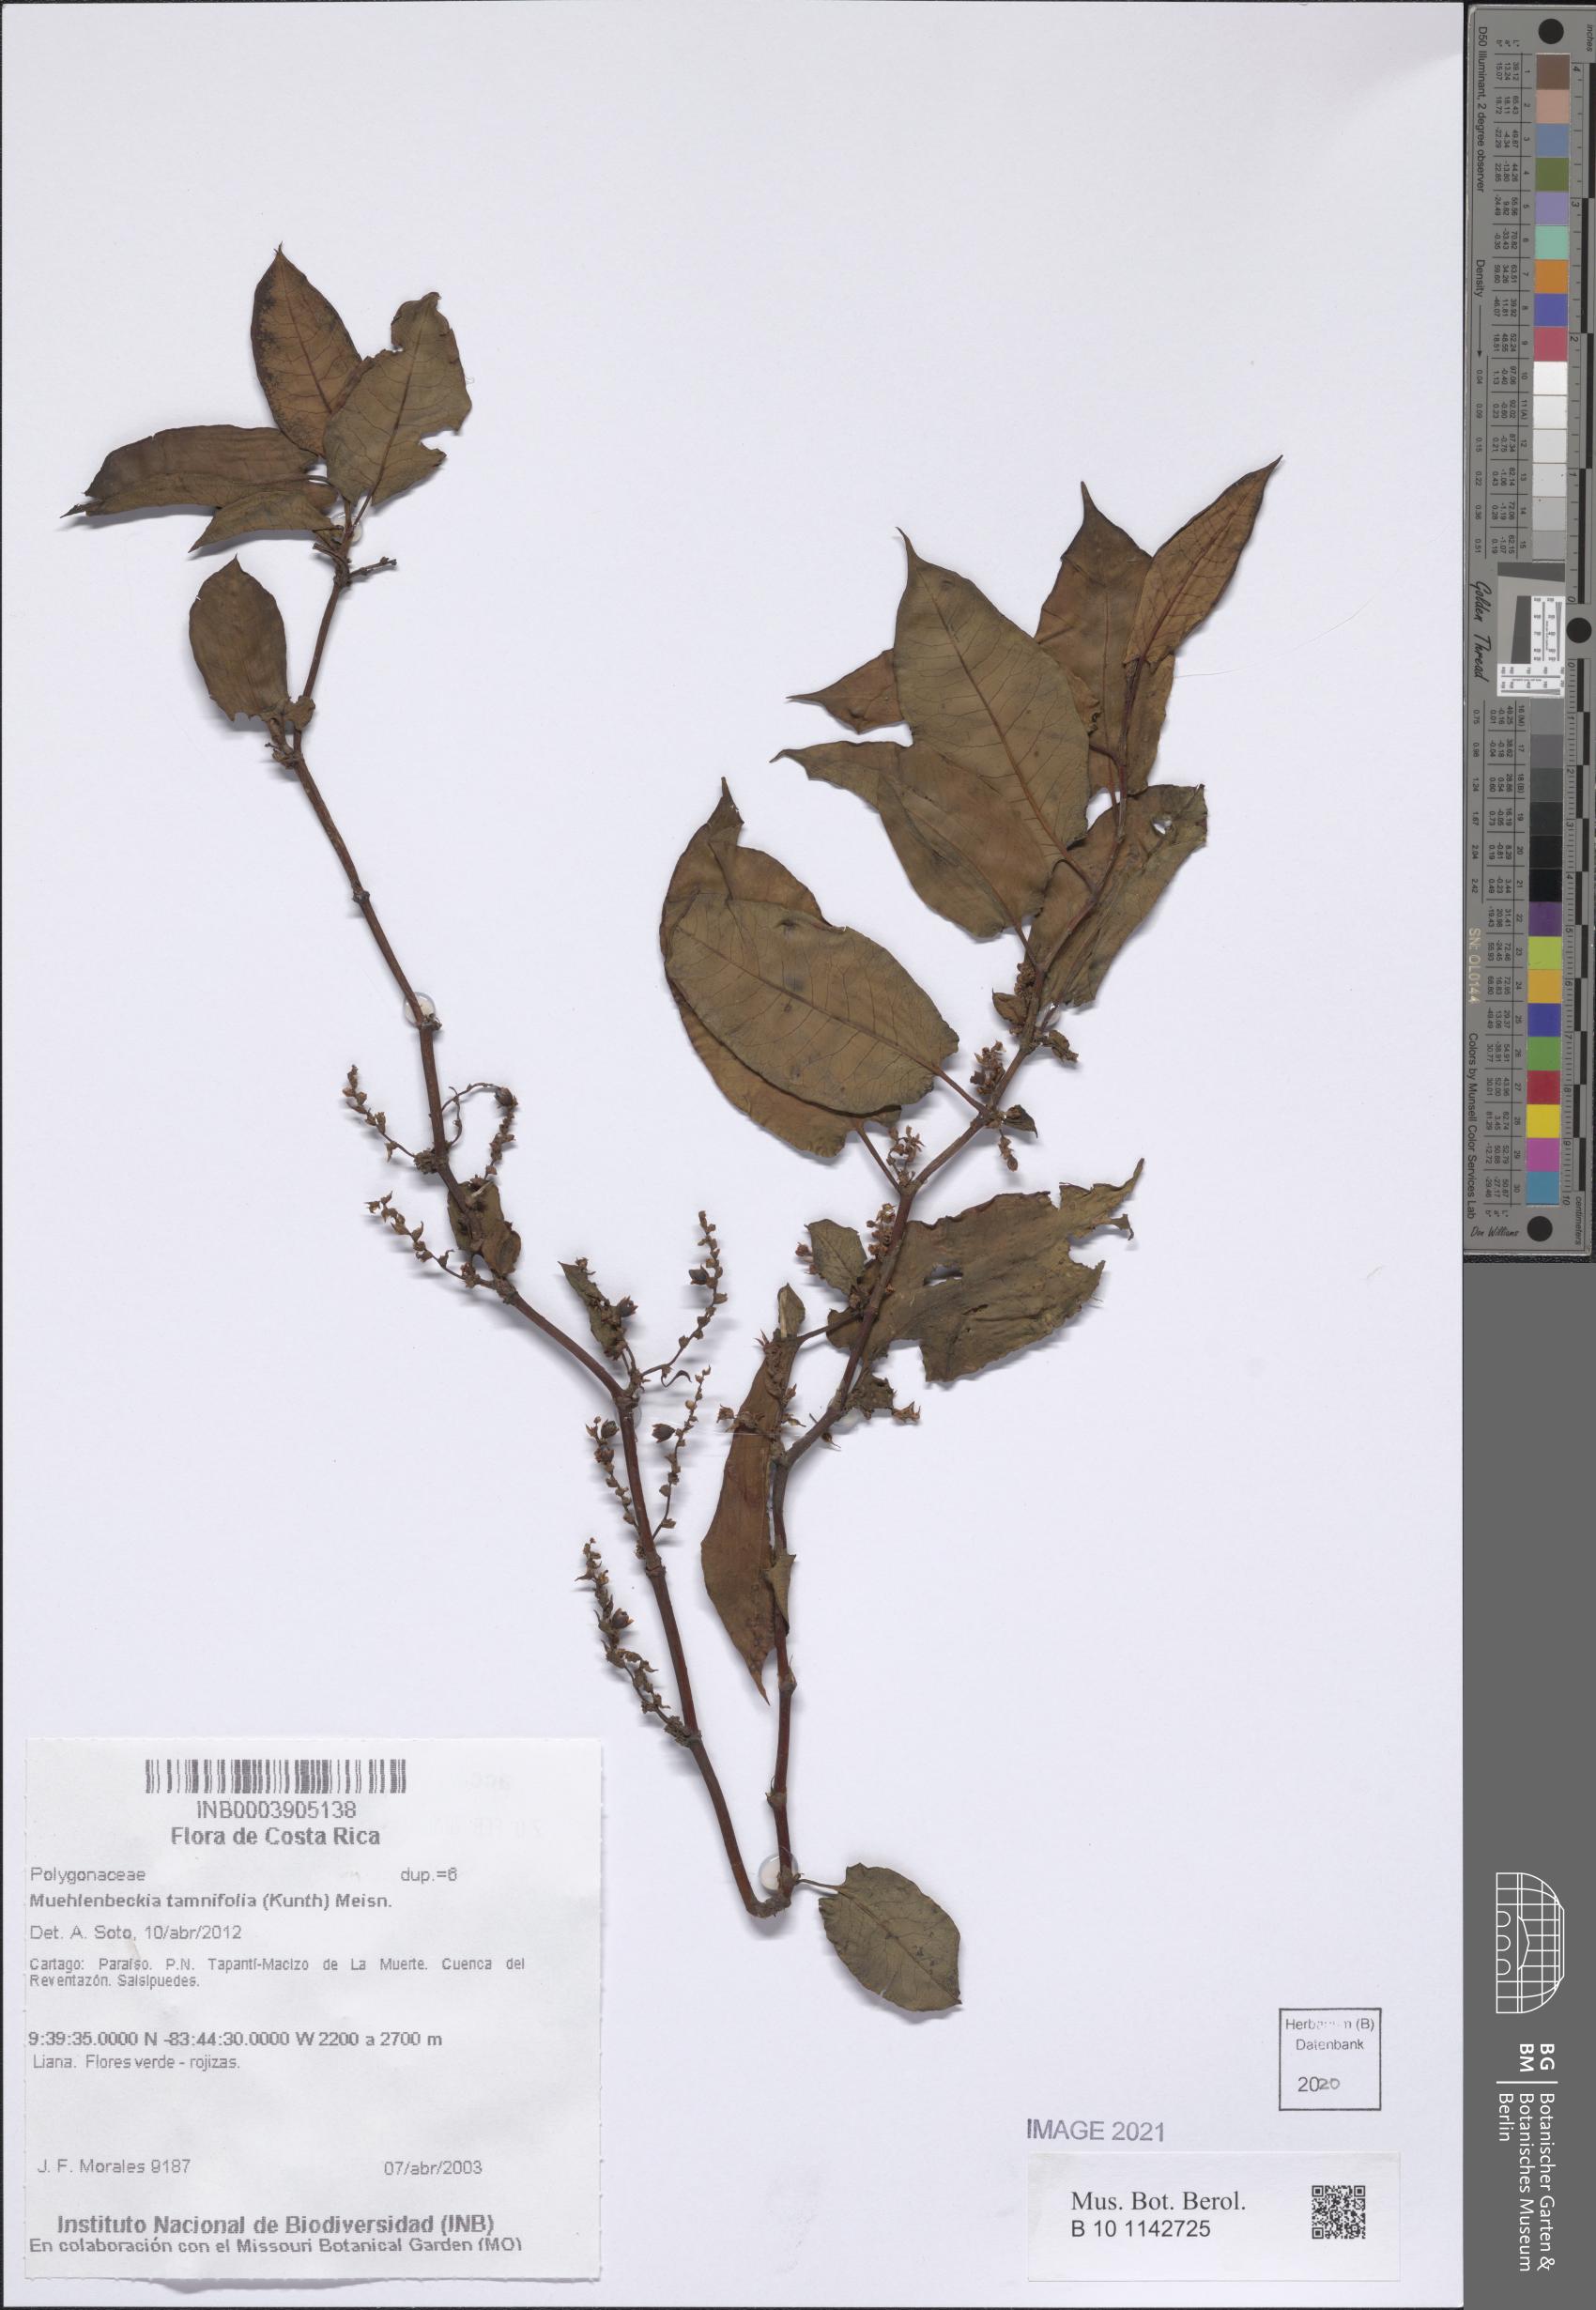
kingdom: Plantae
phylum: Tracheophyta
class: Magnoliopsida
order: Caryophyllales
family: Polygonaceae
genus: Muehlenbeckia
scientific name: Muehlenbeckia tamnifolia
